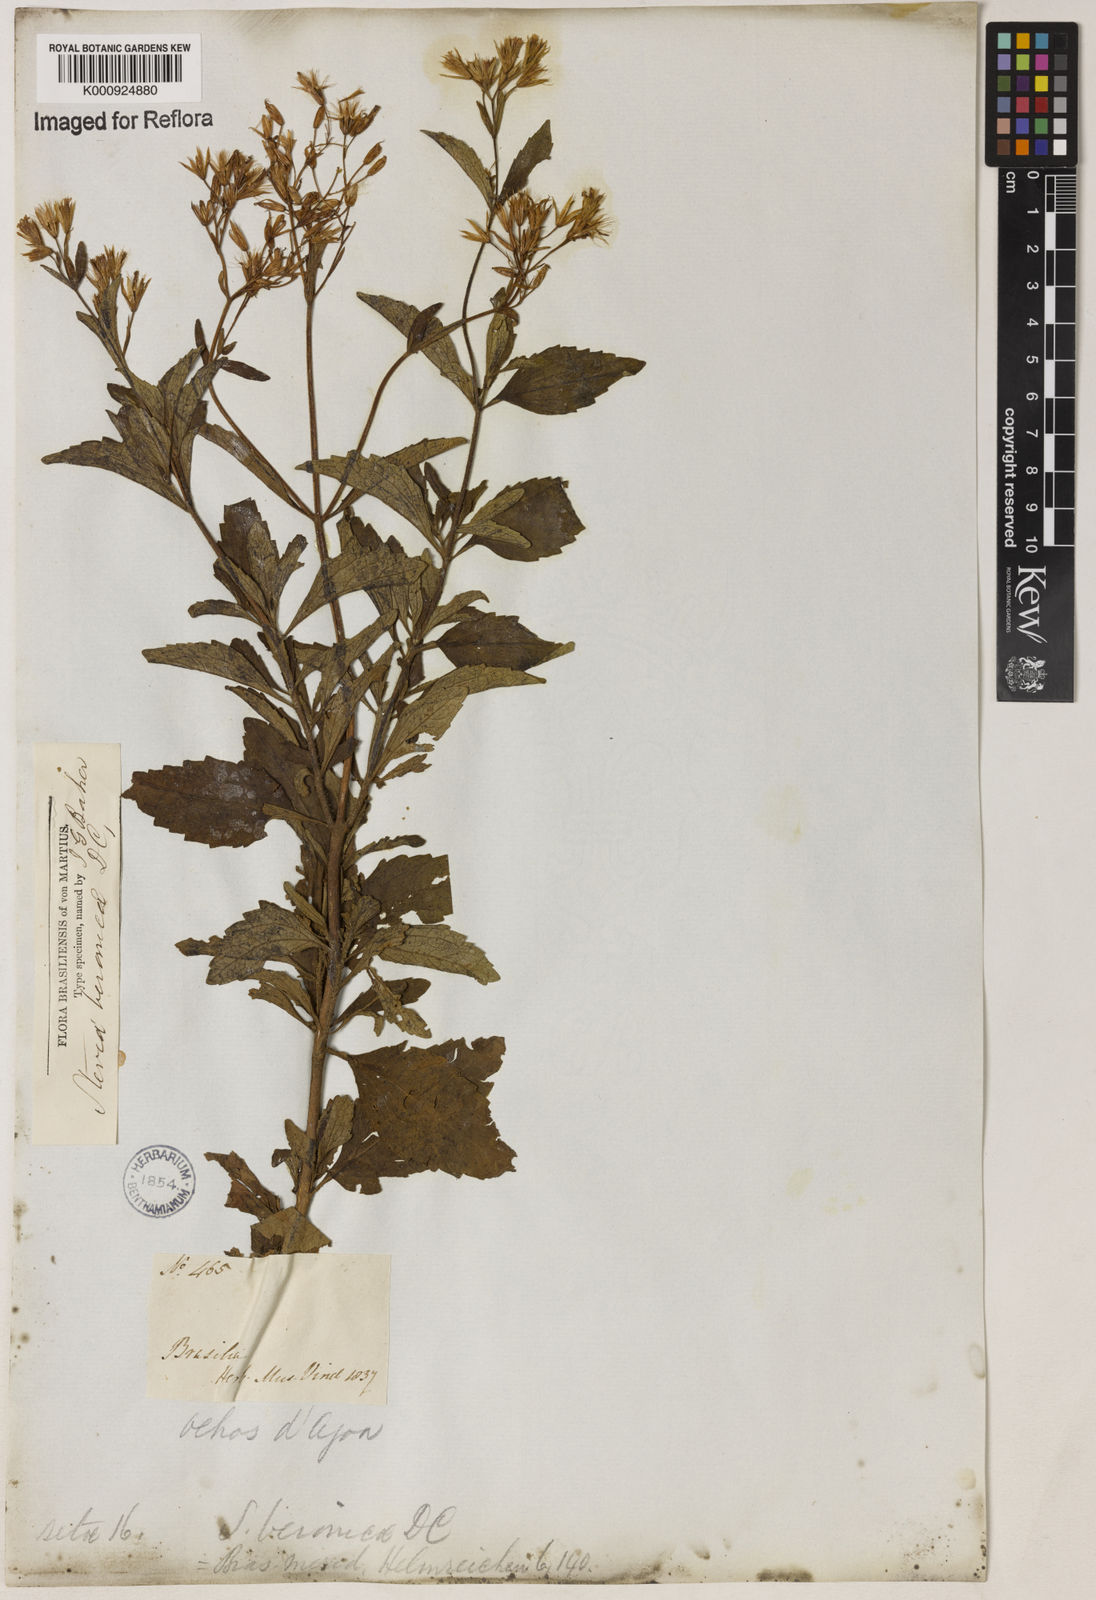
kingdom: Plantae
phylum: Tracheophyta
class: Magnoliopsida
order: Asterales
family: Asteraceae
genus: Stevia
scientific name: Stevia veronicae
